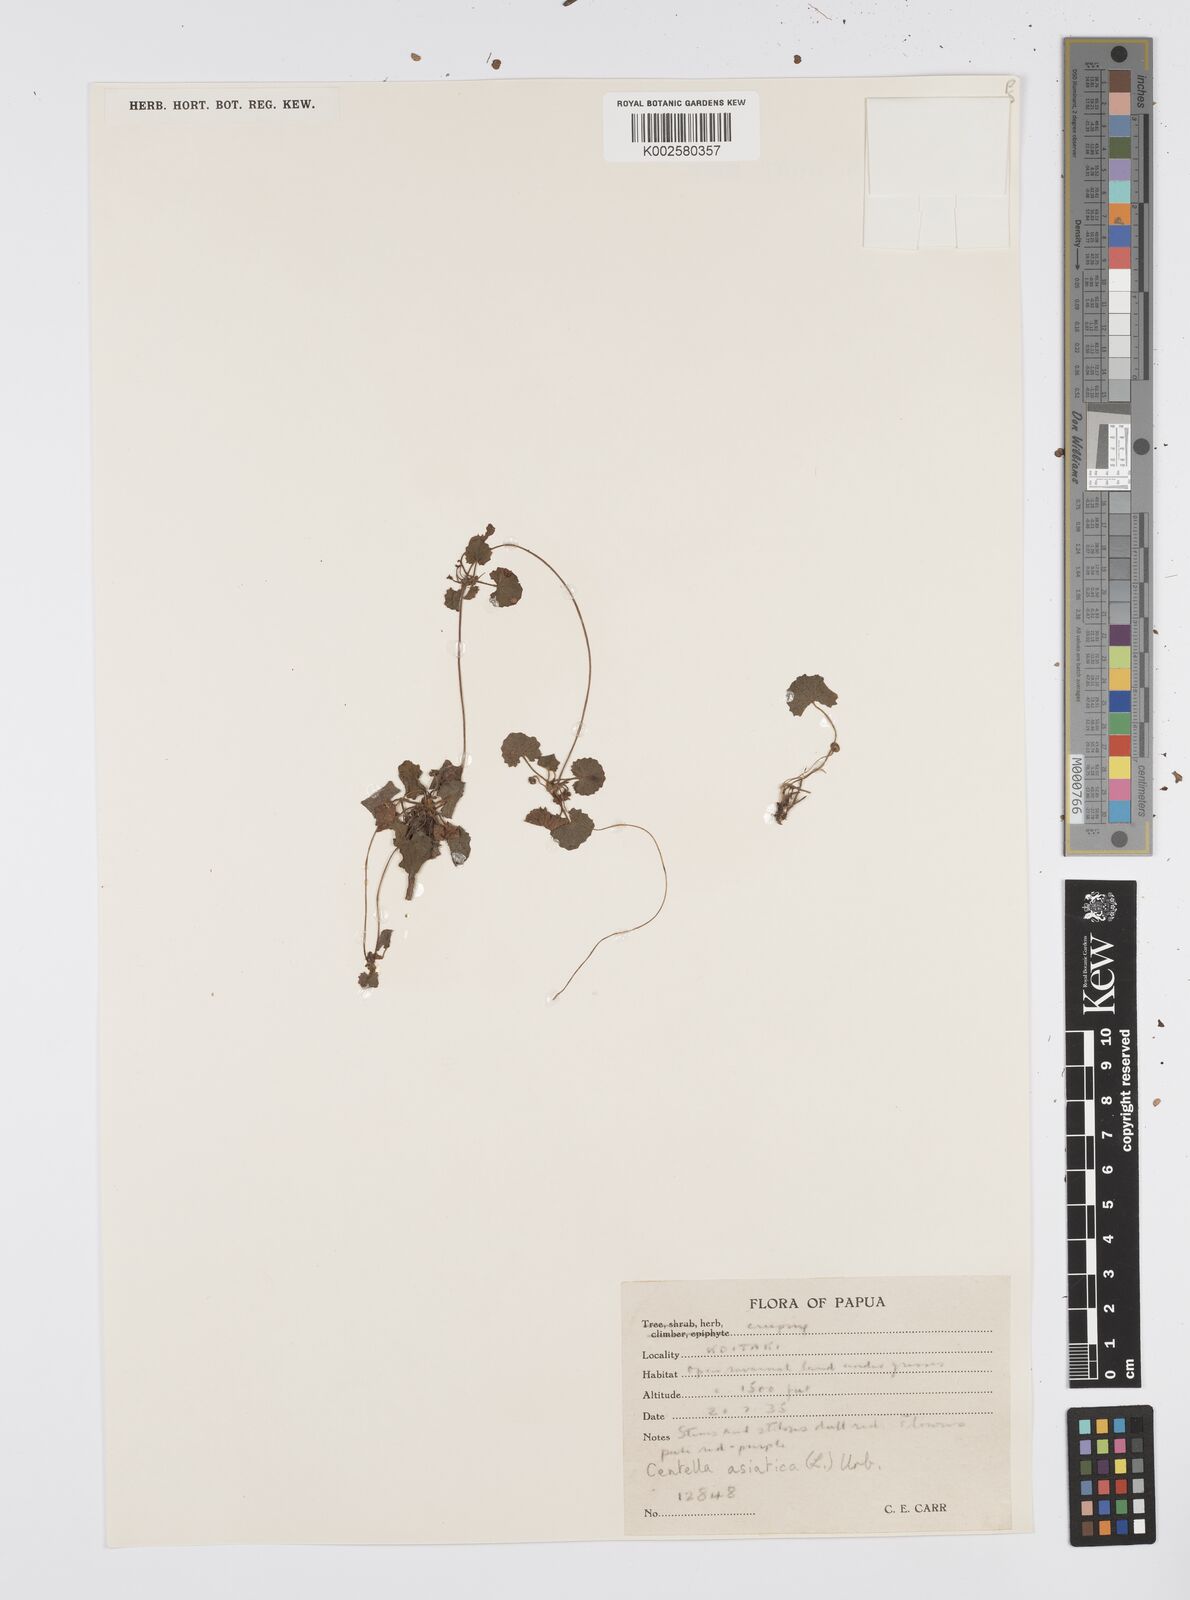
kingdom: Plantae
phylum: Tracheophyta
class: Magnoliopsida
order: Apiales
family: Apiaceae
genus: Centella
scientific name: Centella asiatica
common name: Spadeleaf
